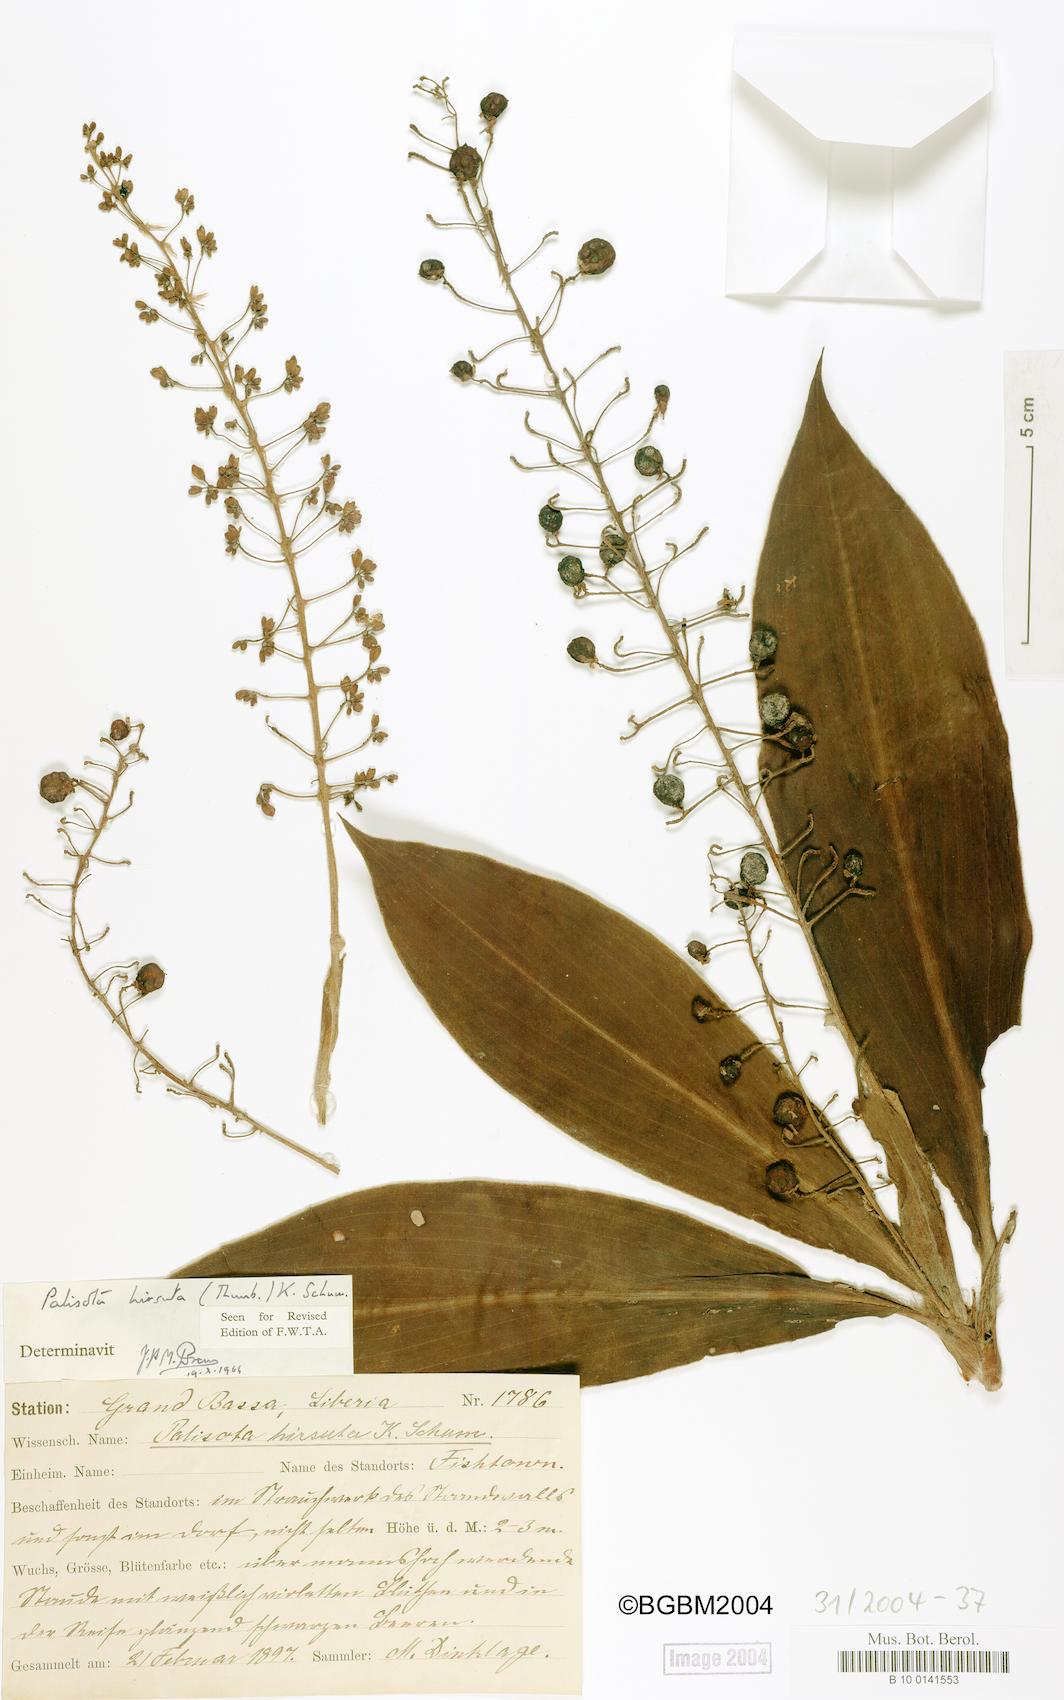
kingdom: Plantae
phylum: Tracheophyta
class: Liliopsida
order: Commelinales
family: Commelinaceae
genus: Palisota
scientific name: Palisota hirsuta
